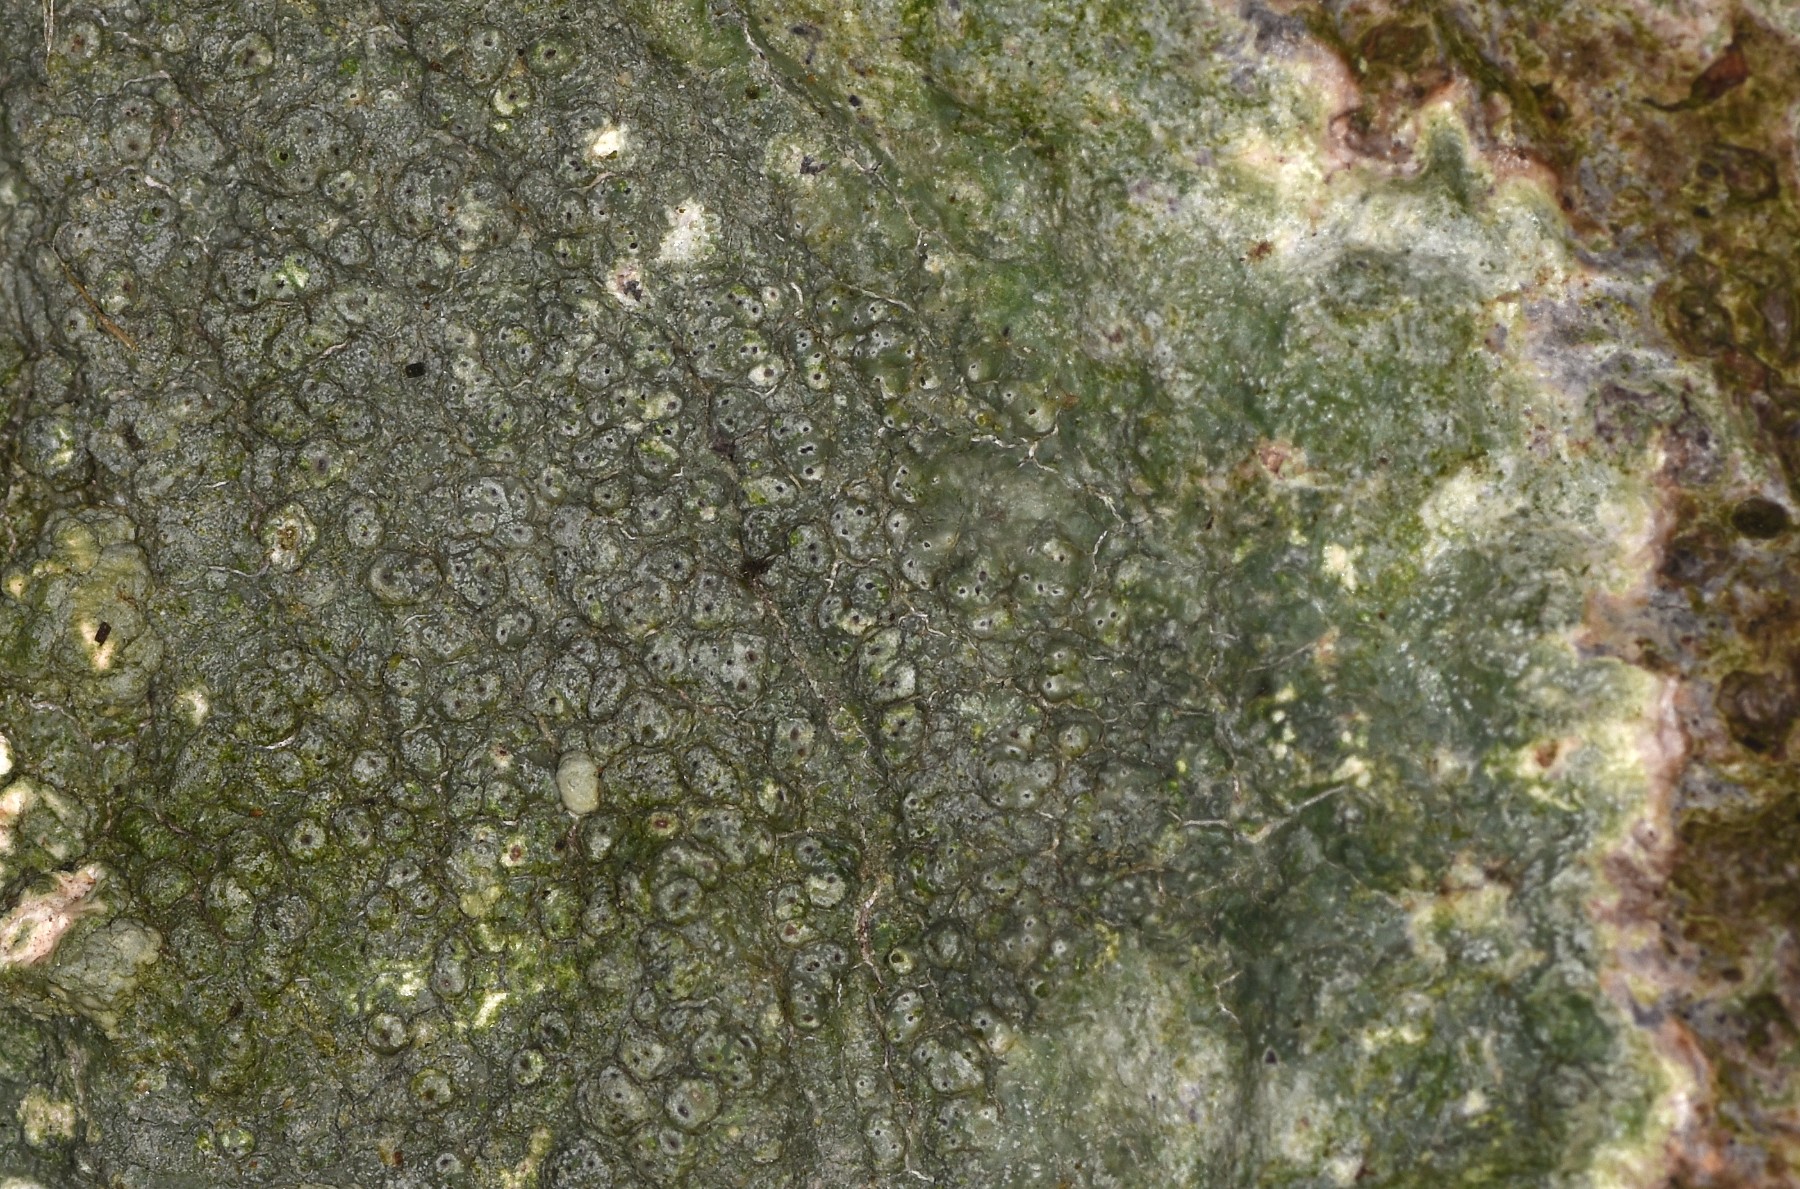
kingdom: Fungi
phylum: Ascomycota
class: Lecanoromycetes
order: Pertusariales
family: Pertusariaceae
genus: Pertusaria
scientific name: Pertusaria pertusa
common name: almindelig prikvortelav
